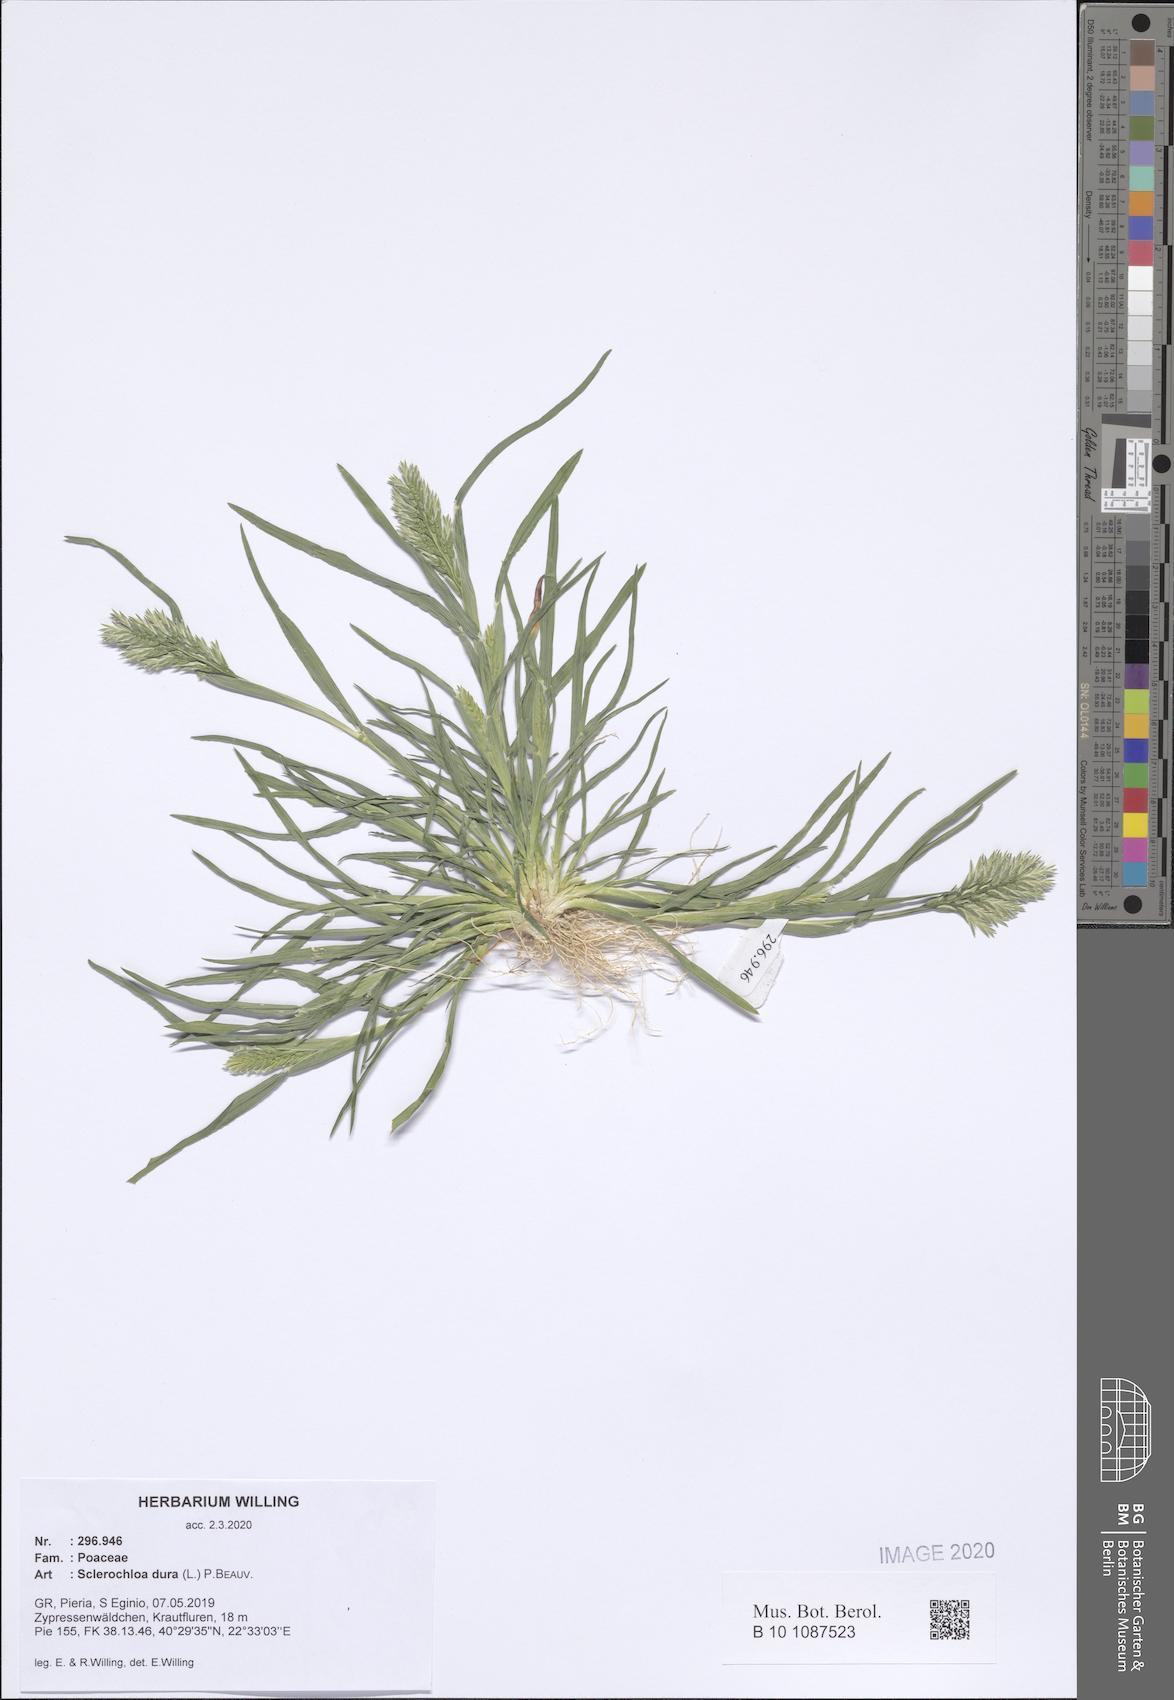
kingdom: Plantae
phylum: Tracheophyta
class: Liliopsida
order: Poales
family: Poaceae
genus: Sclerochloa
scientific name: Sclerochloa dura
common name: Common hardgrass
